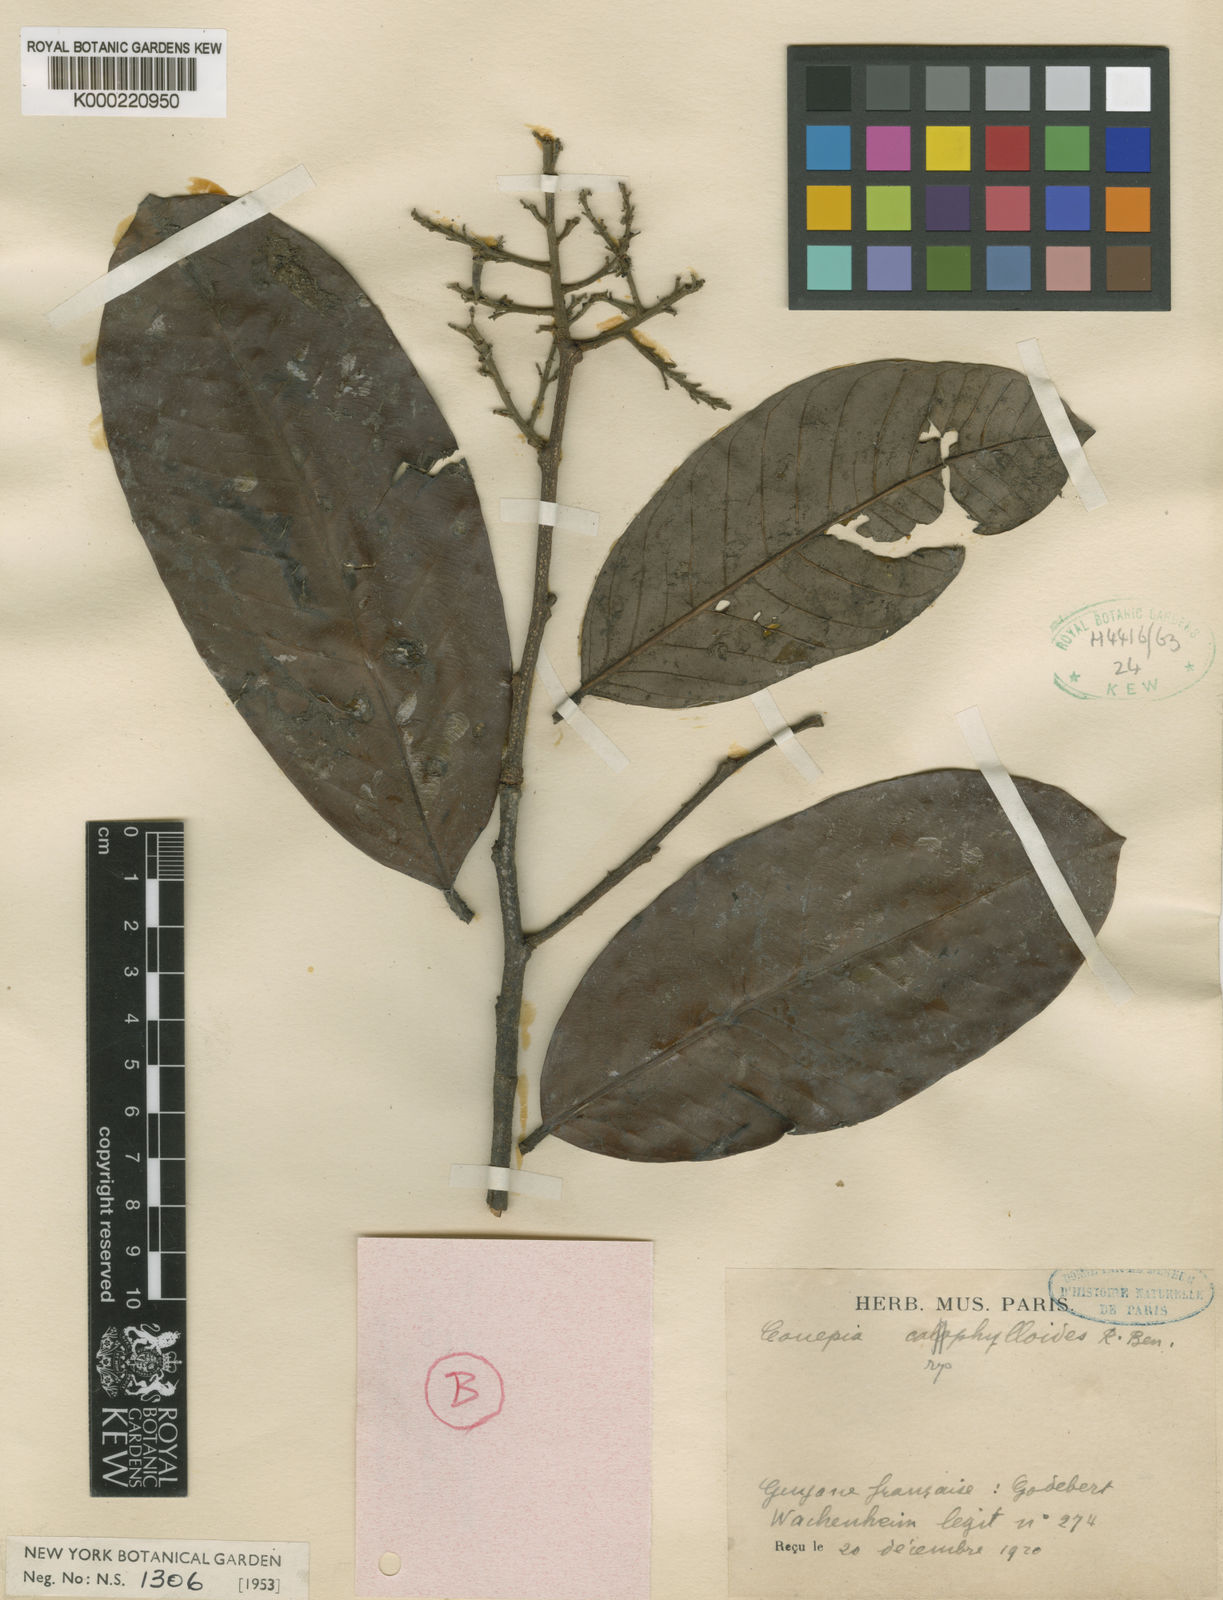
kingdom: Plantae
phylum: Tracheophyta
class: Magnoliopsida
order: Malpighiales
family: Chrysobalanaceae
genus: Couepia
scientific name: Couepia caryophylloides
